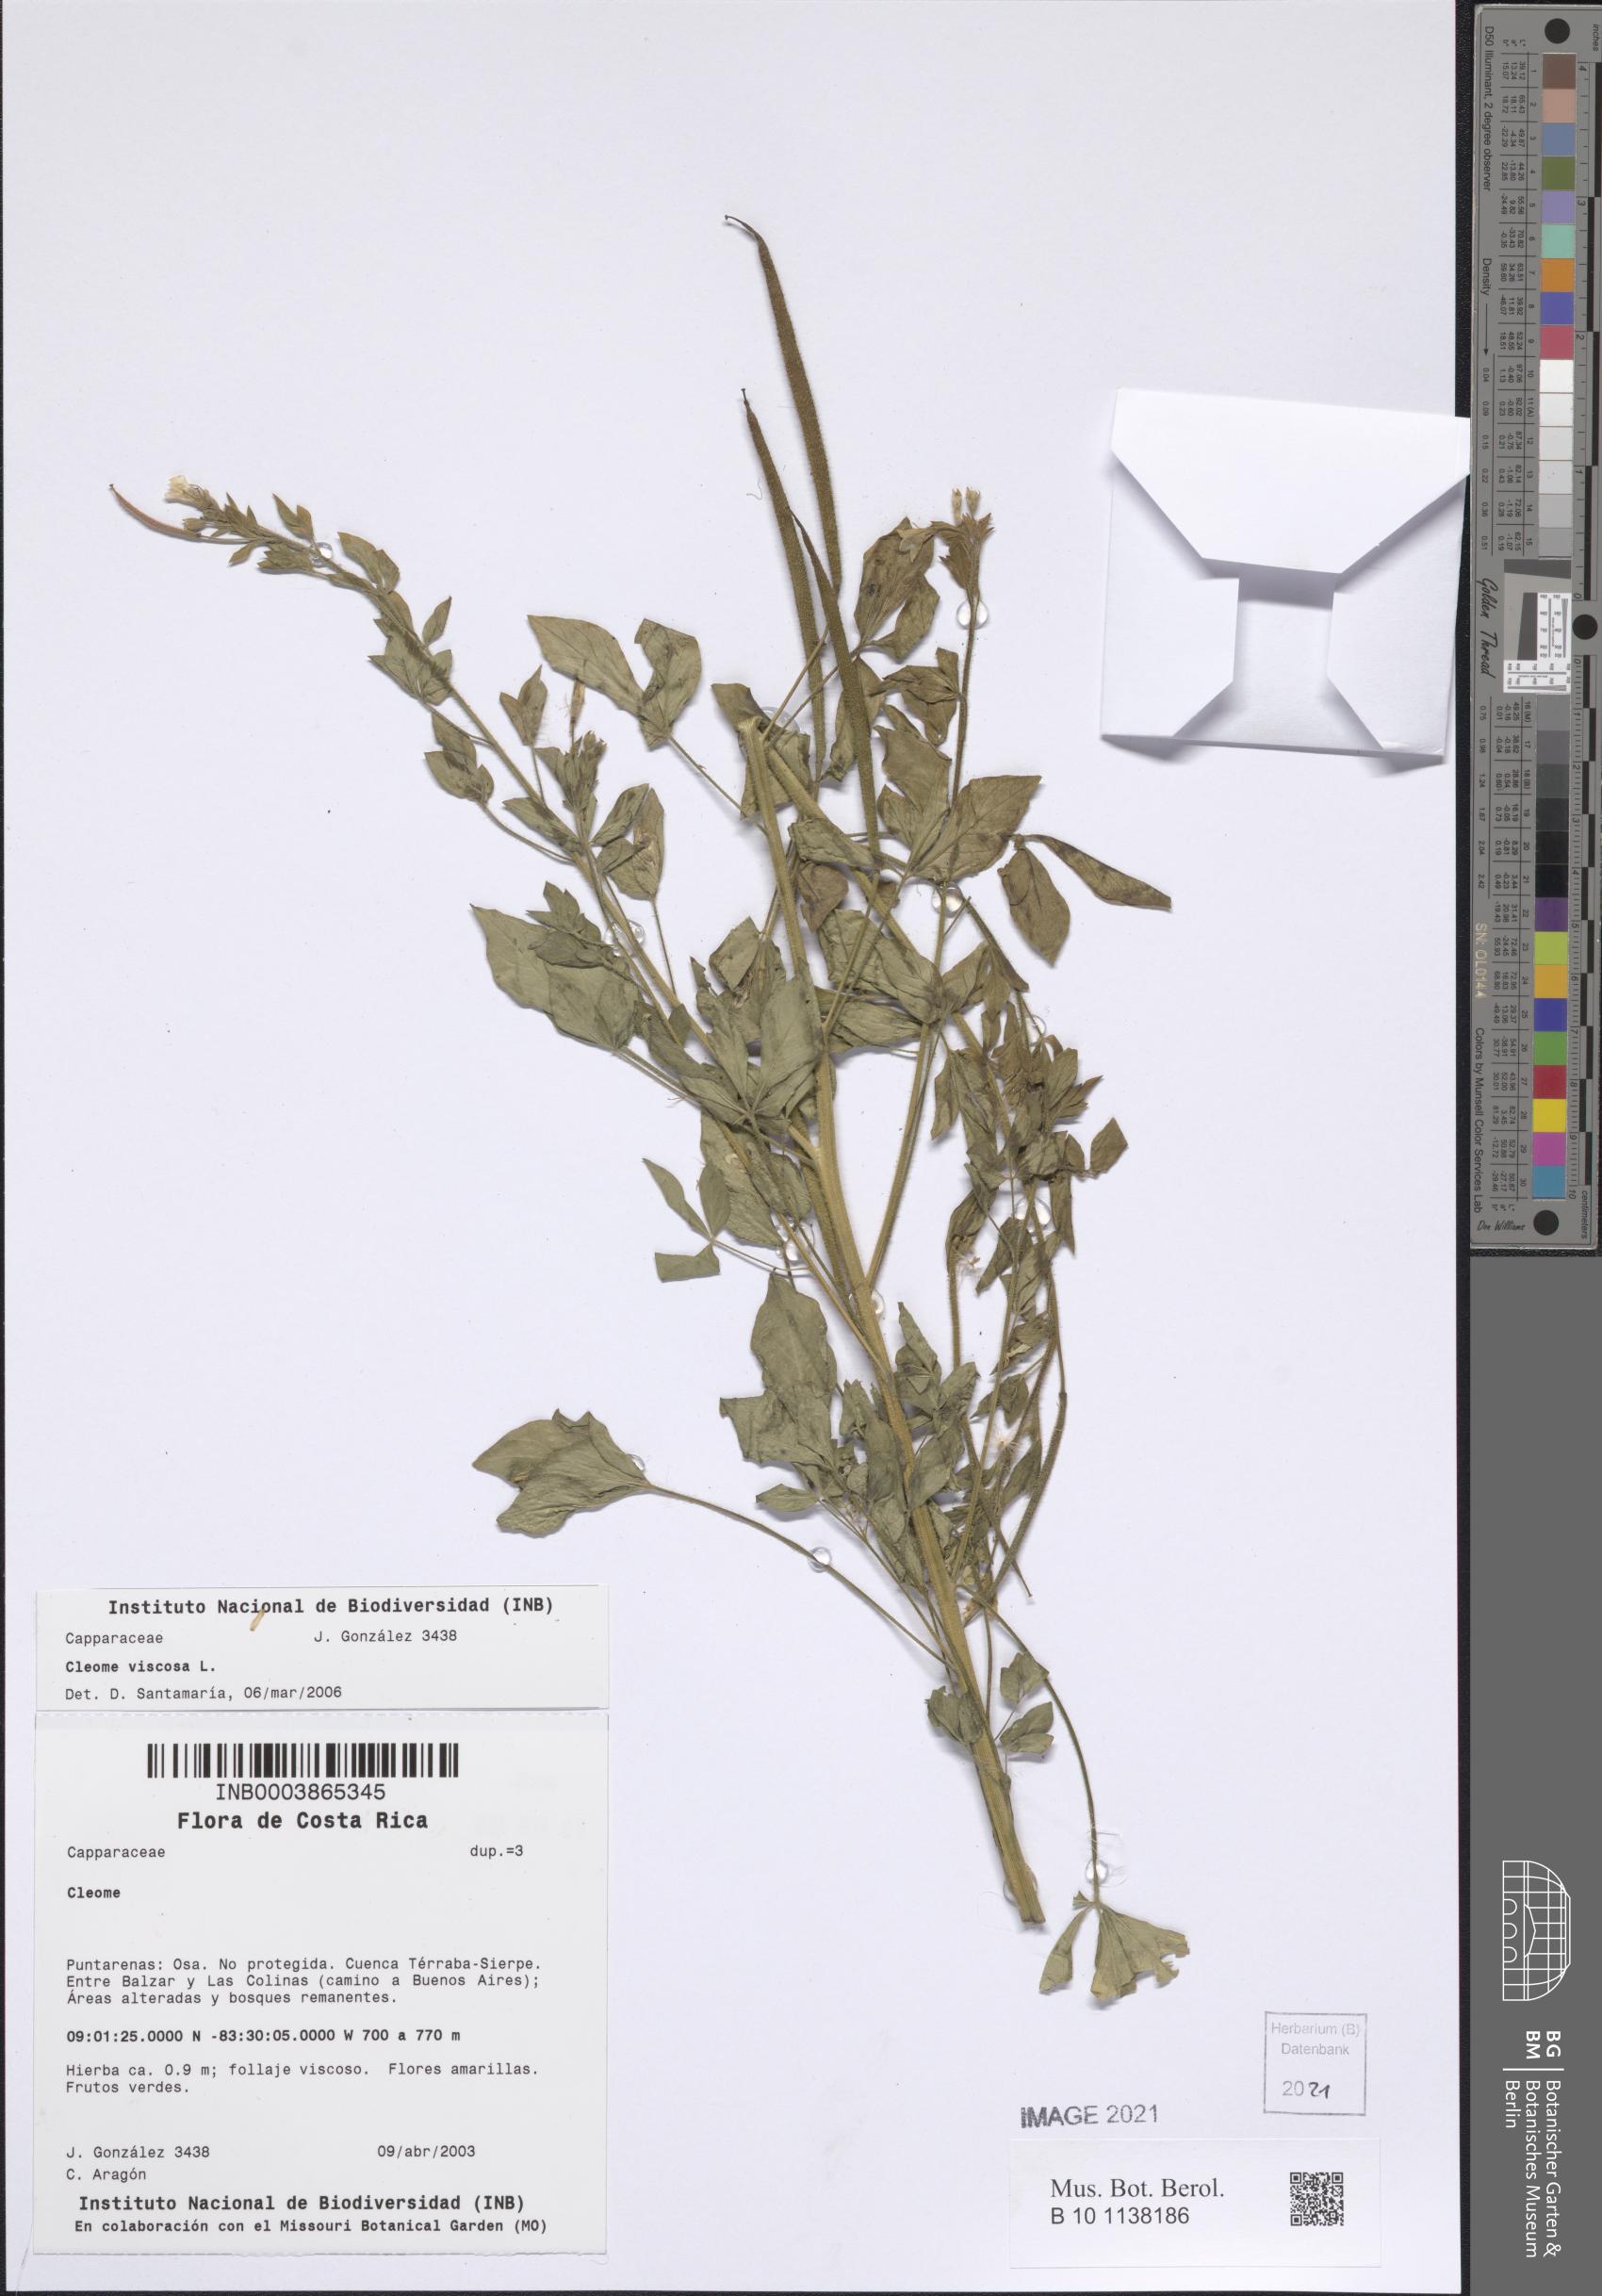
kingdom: Plantae
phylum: Tracheophyta
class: Magnoliopsida
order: Brassicales
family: Cleomaceae
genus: Arivela
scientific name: Arivela viscosa
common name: Asian spiderflower
